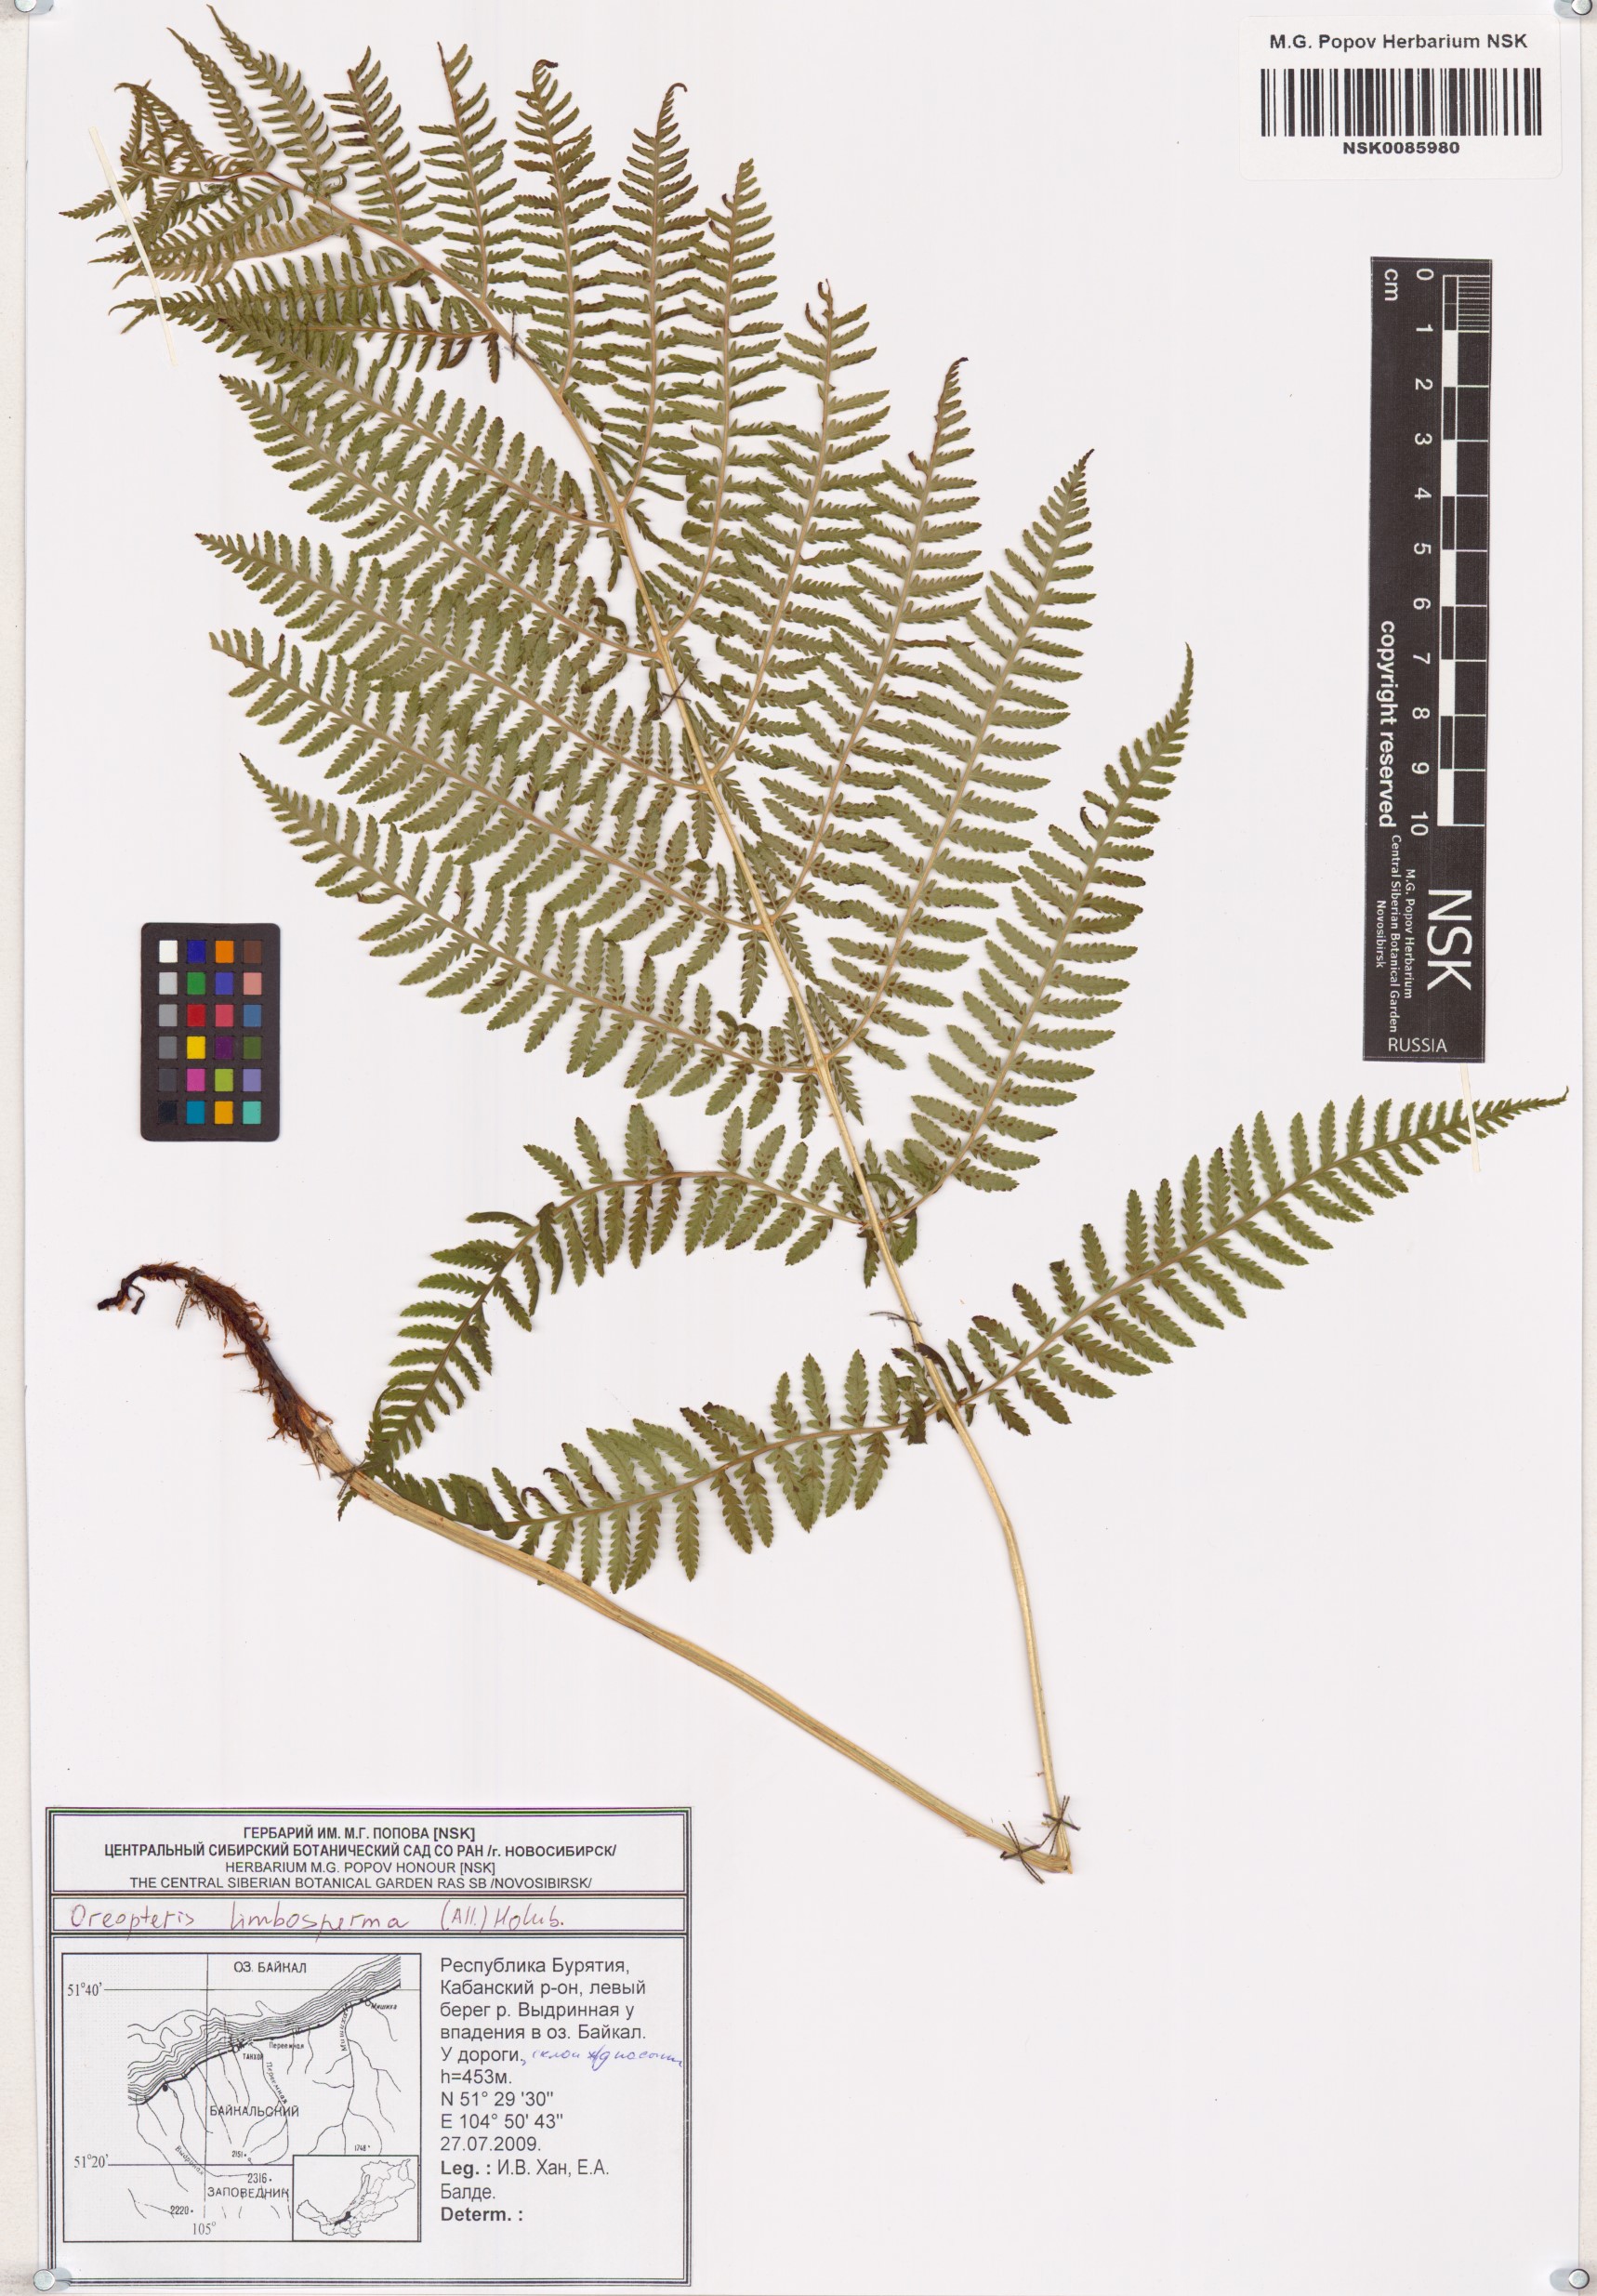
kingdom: Plantae
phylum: Tracheophyta
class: Polypodiopsida
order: Polypodiales
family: Thelypteridaceae
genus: Oreopteris
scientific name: Oreopteris limbosperma
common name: Lemon-scented fern
